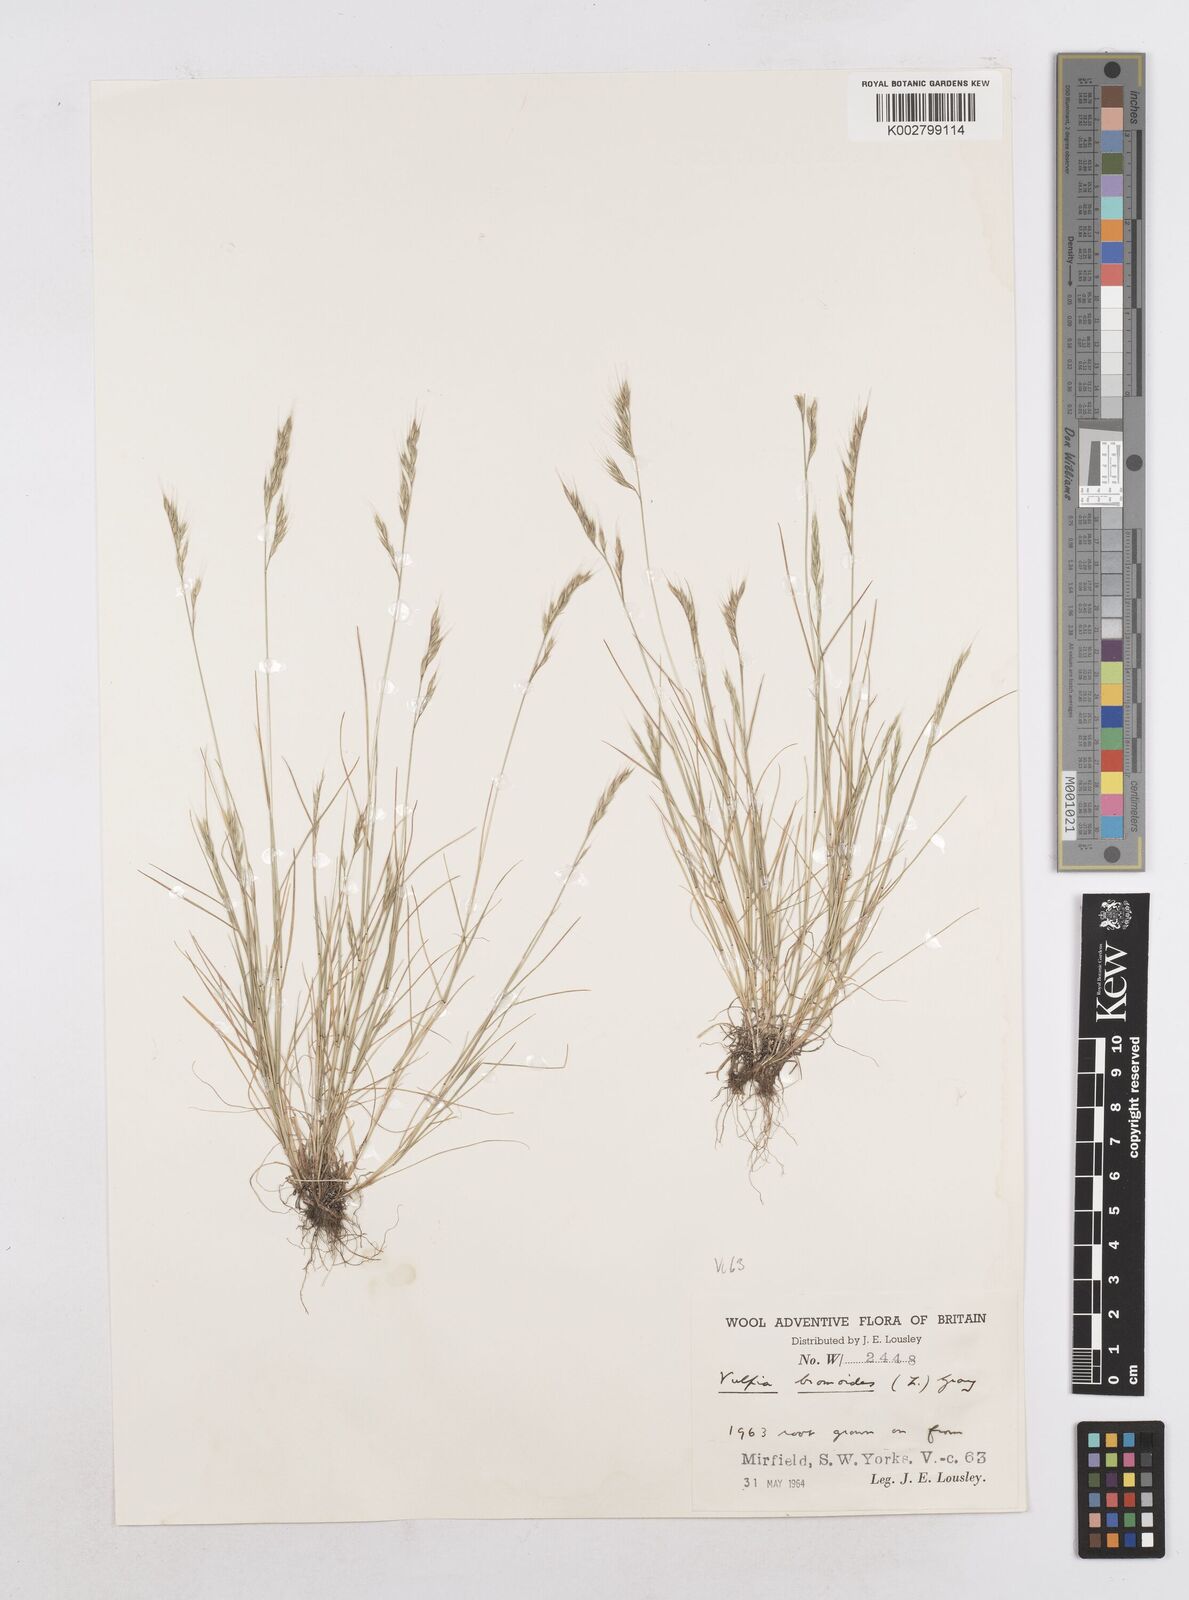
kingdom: Plantae
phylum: Tracheophyta
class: Liliopsida
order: Poales
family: Poaceae
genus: Festuca
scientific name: Festuca bromoides
